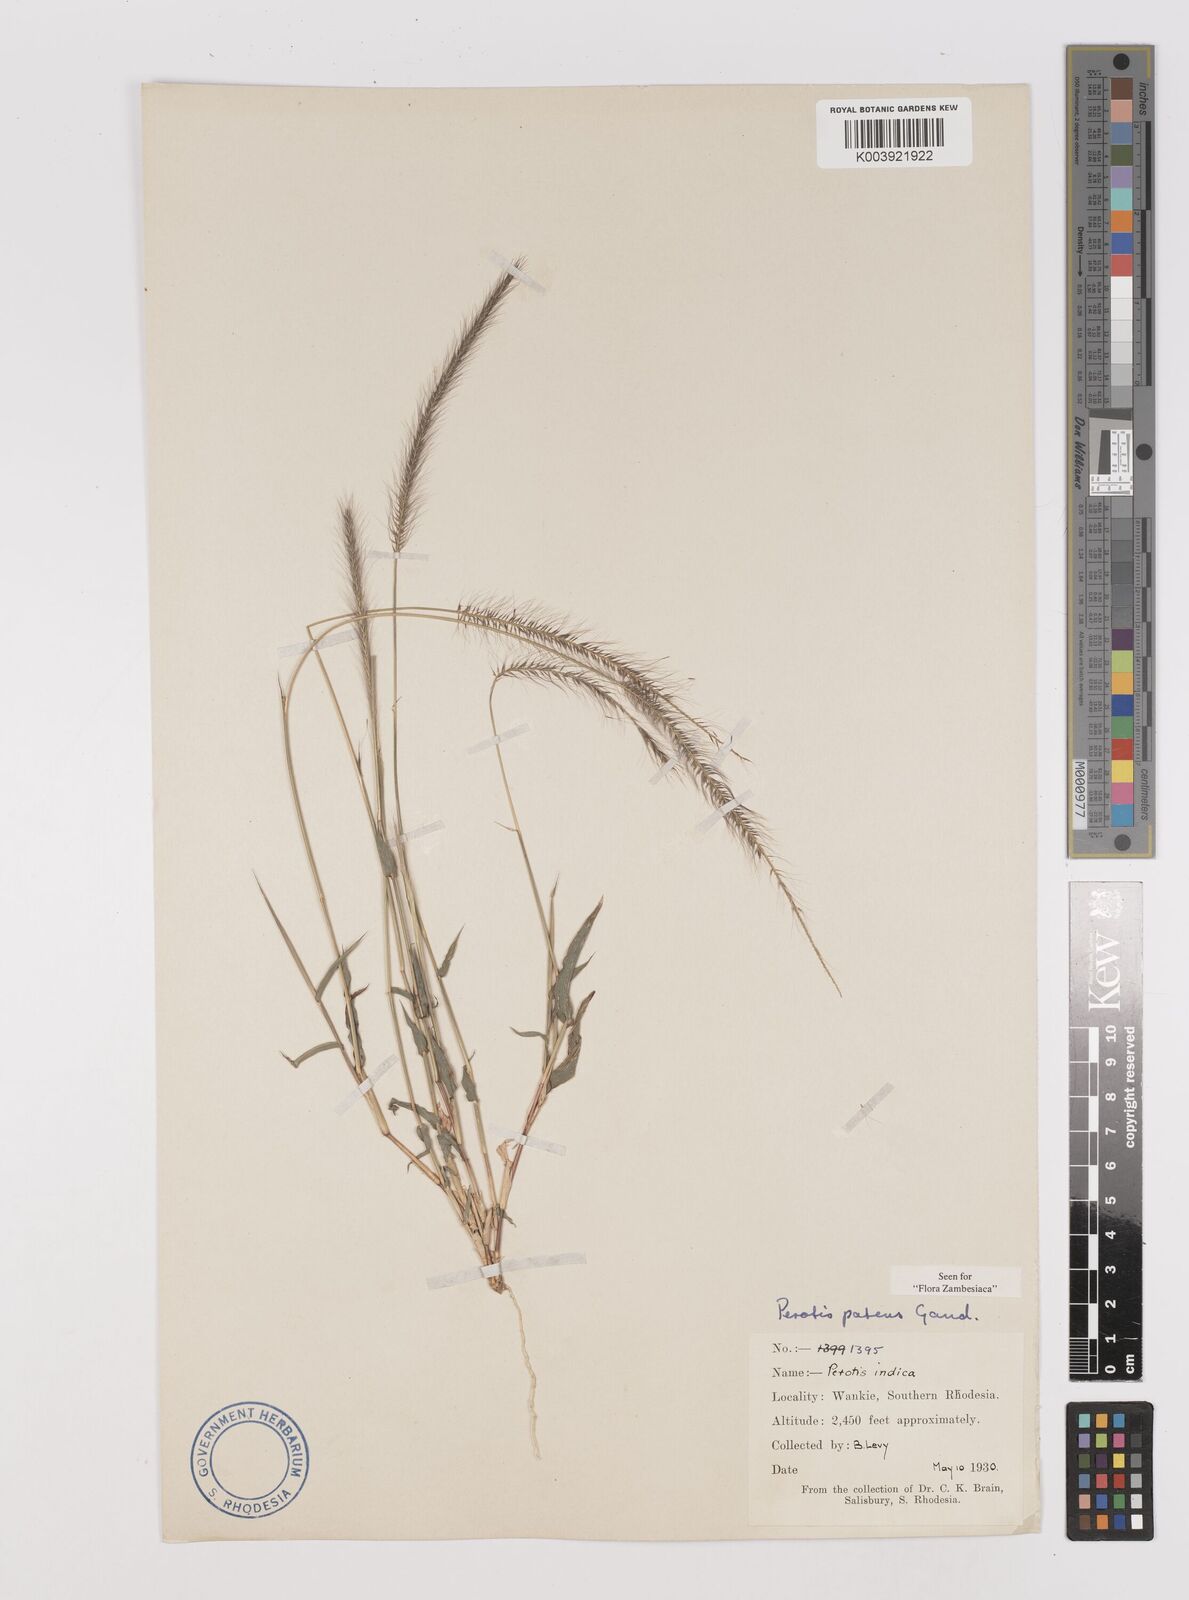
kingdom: Plantae
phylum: Tracheophyta
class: Liliopsida
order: Poales
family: Poaceae
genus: Perotis
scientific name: Perotis patens
